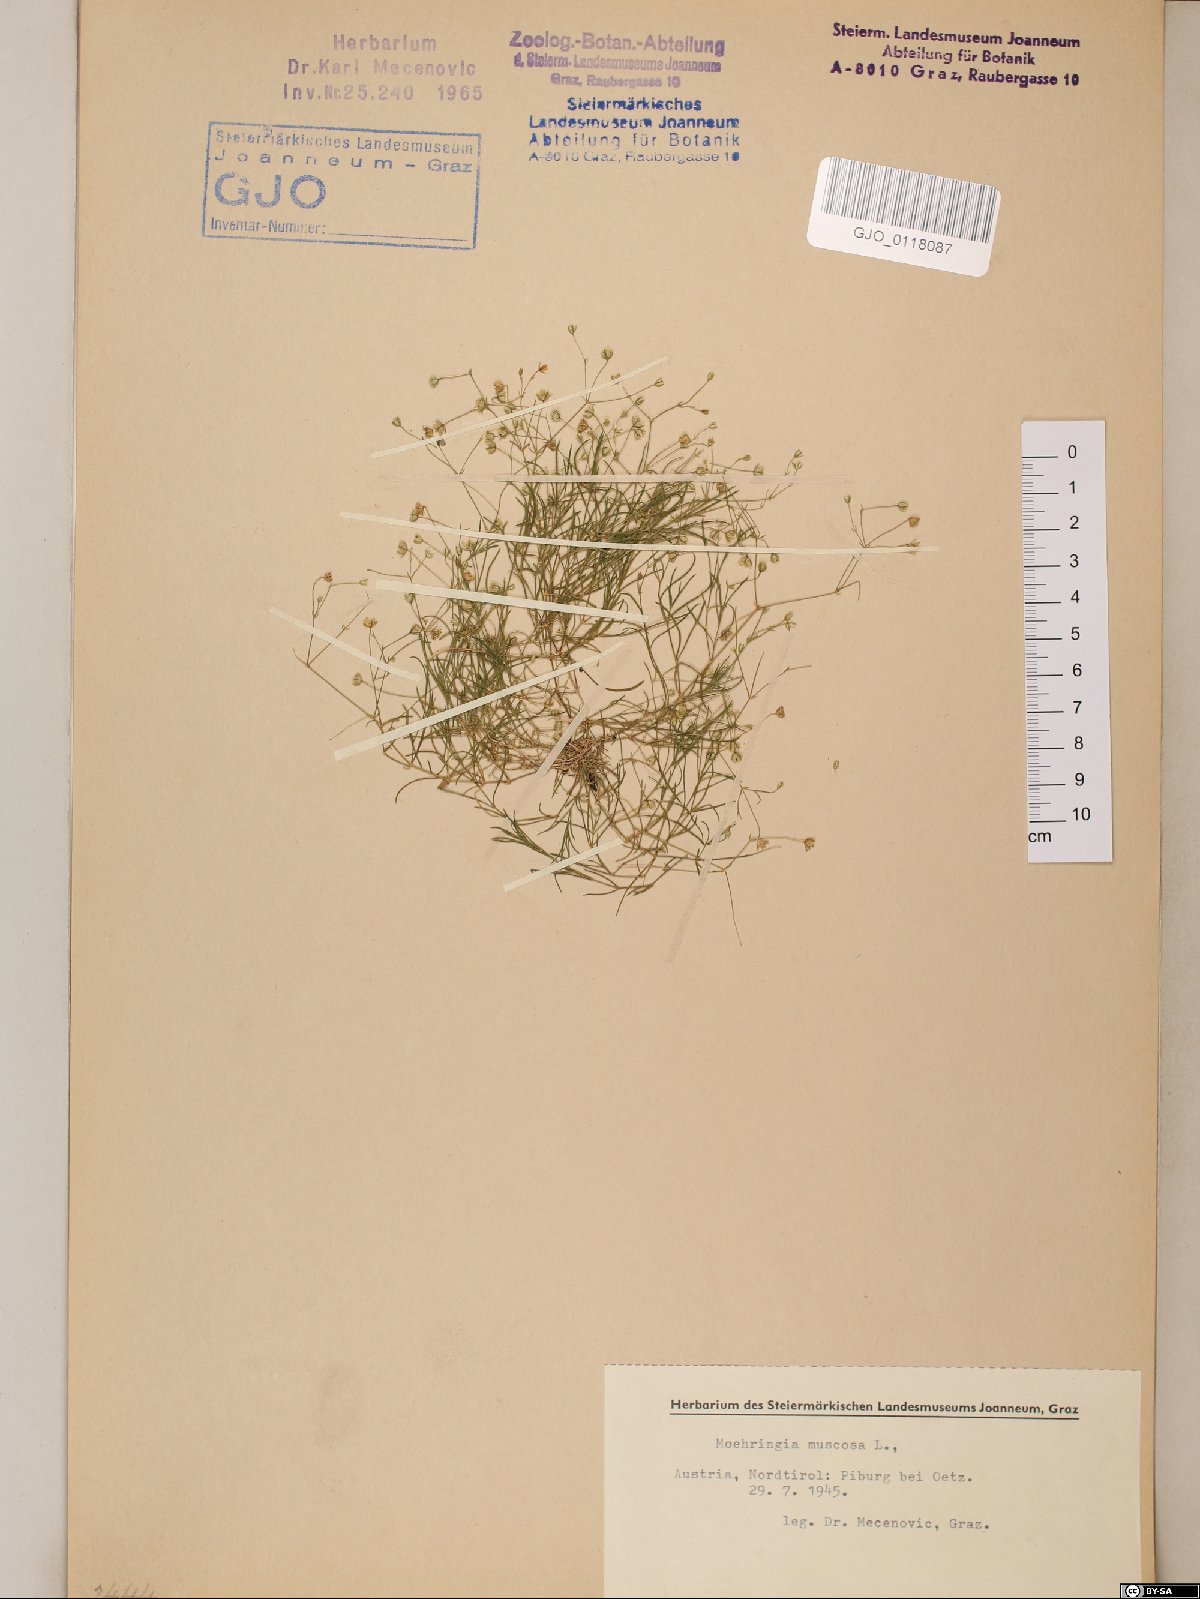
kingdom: Plantae
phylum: Tracheophyta
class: Magnoliopsida
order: Caryophyllales
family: Caryophyllaceae
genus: Moehringia
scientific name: Moehringia muscosa
